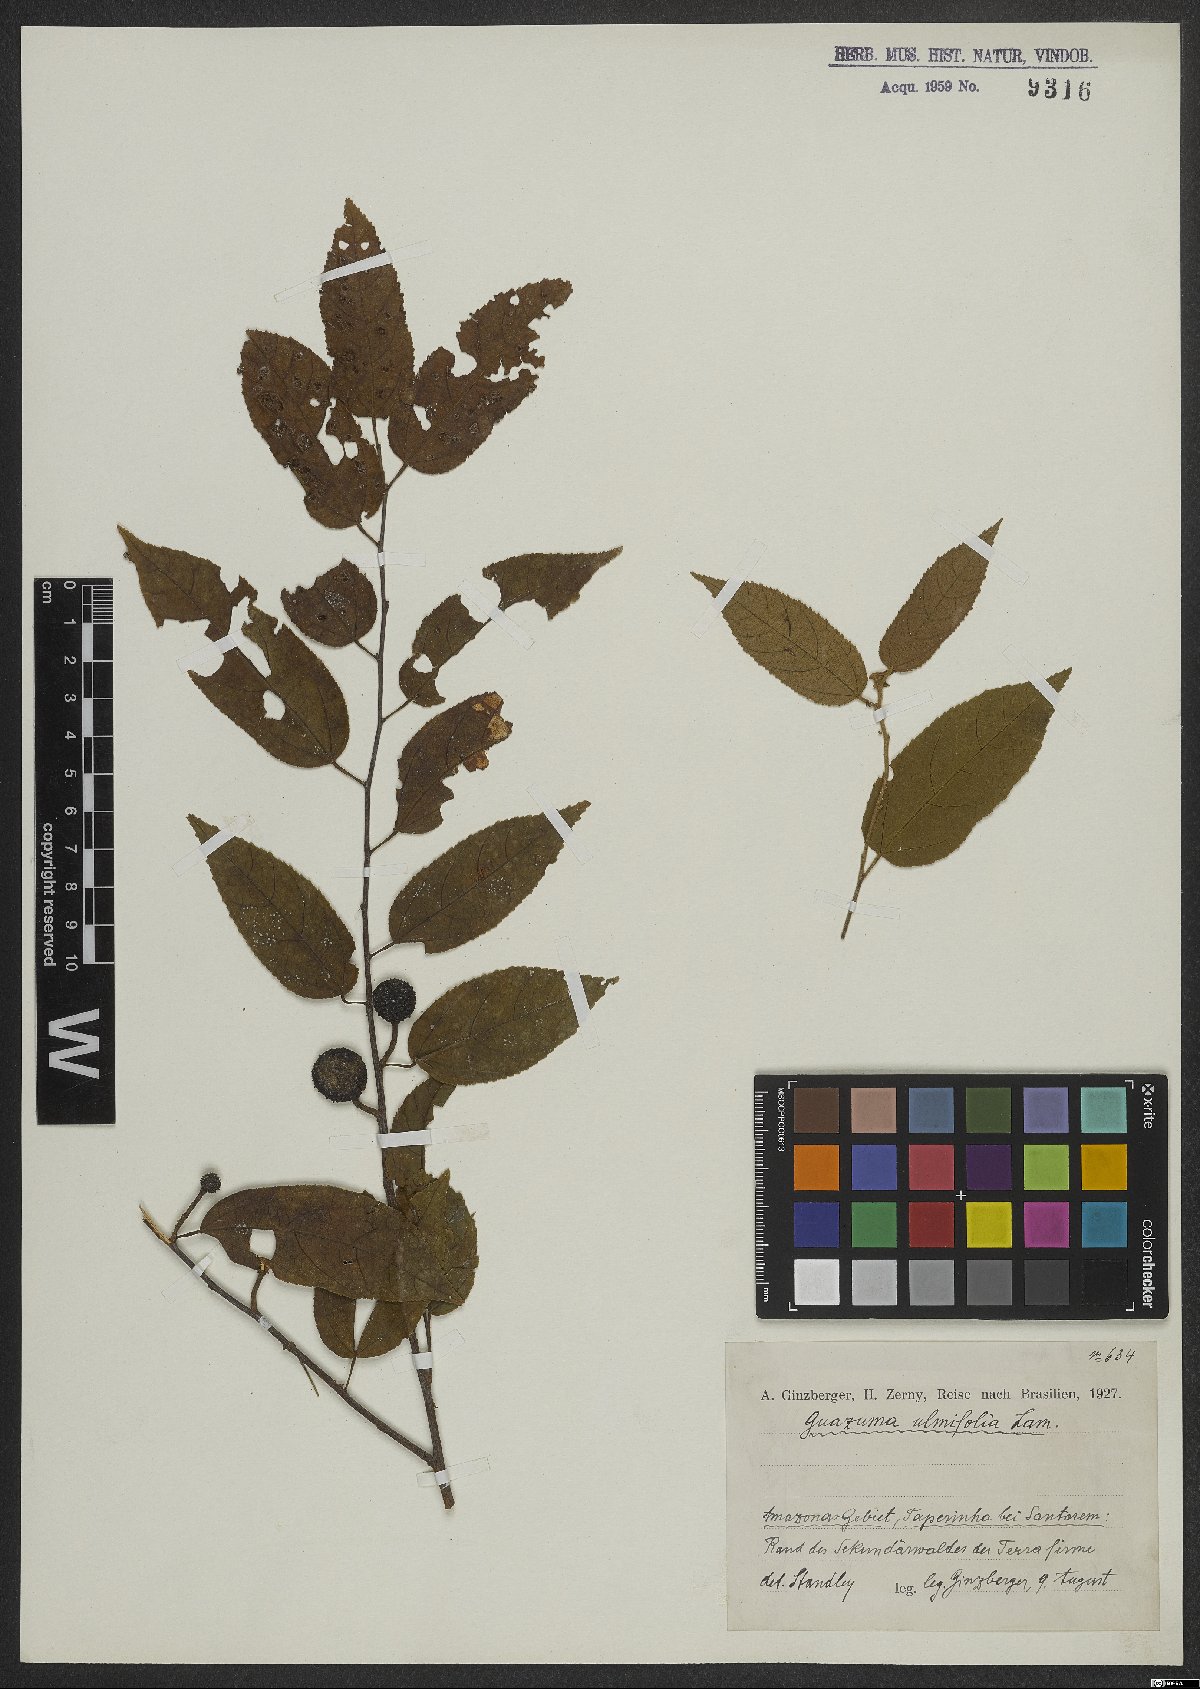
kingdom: Plantae
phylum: Tracheophyta
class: Magnoliopsida
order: Malvales
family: Malvaceae
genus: Guazuma
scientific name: Guazuma ulmifolia
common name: Bastard-cedar
